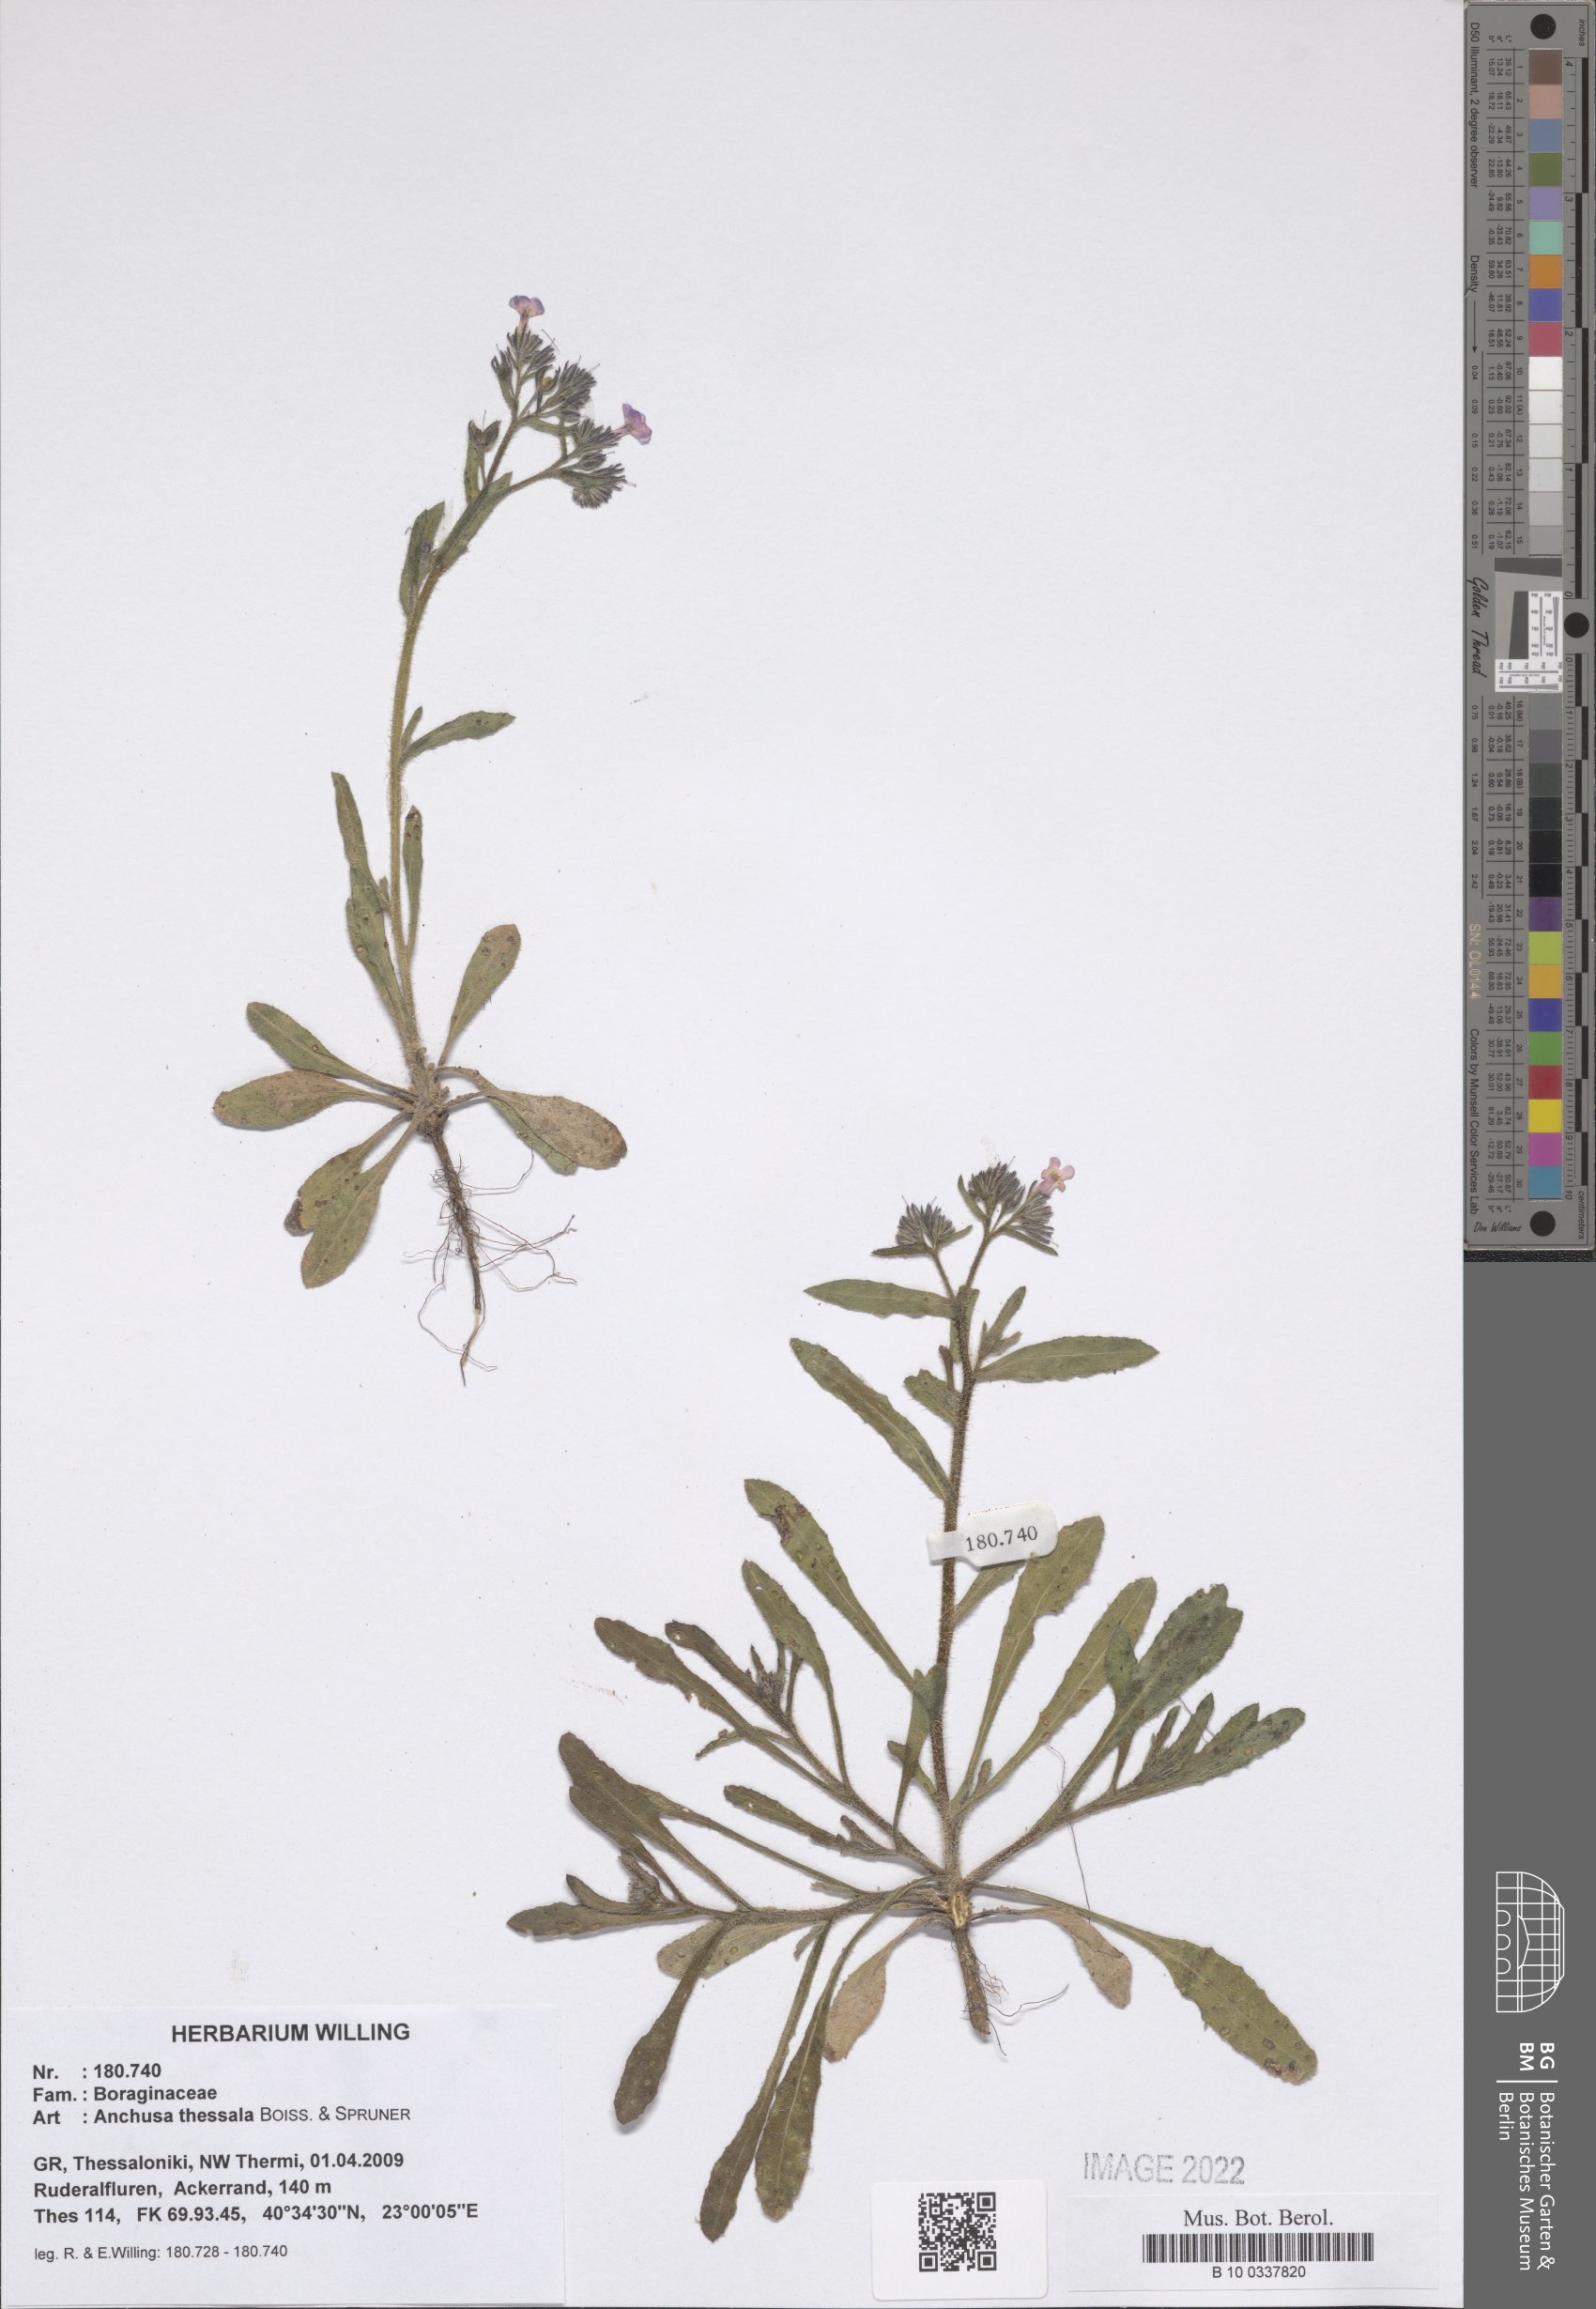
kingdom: Plantae
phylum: Tracheophyta
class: Magnoliopsida
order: Boraginales
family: Boraginaceae
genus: Anchusa
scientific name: Anchusa thessala
